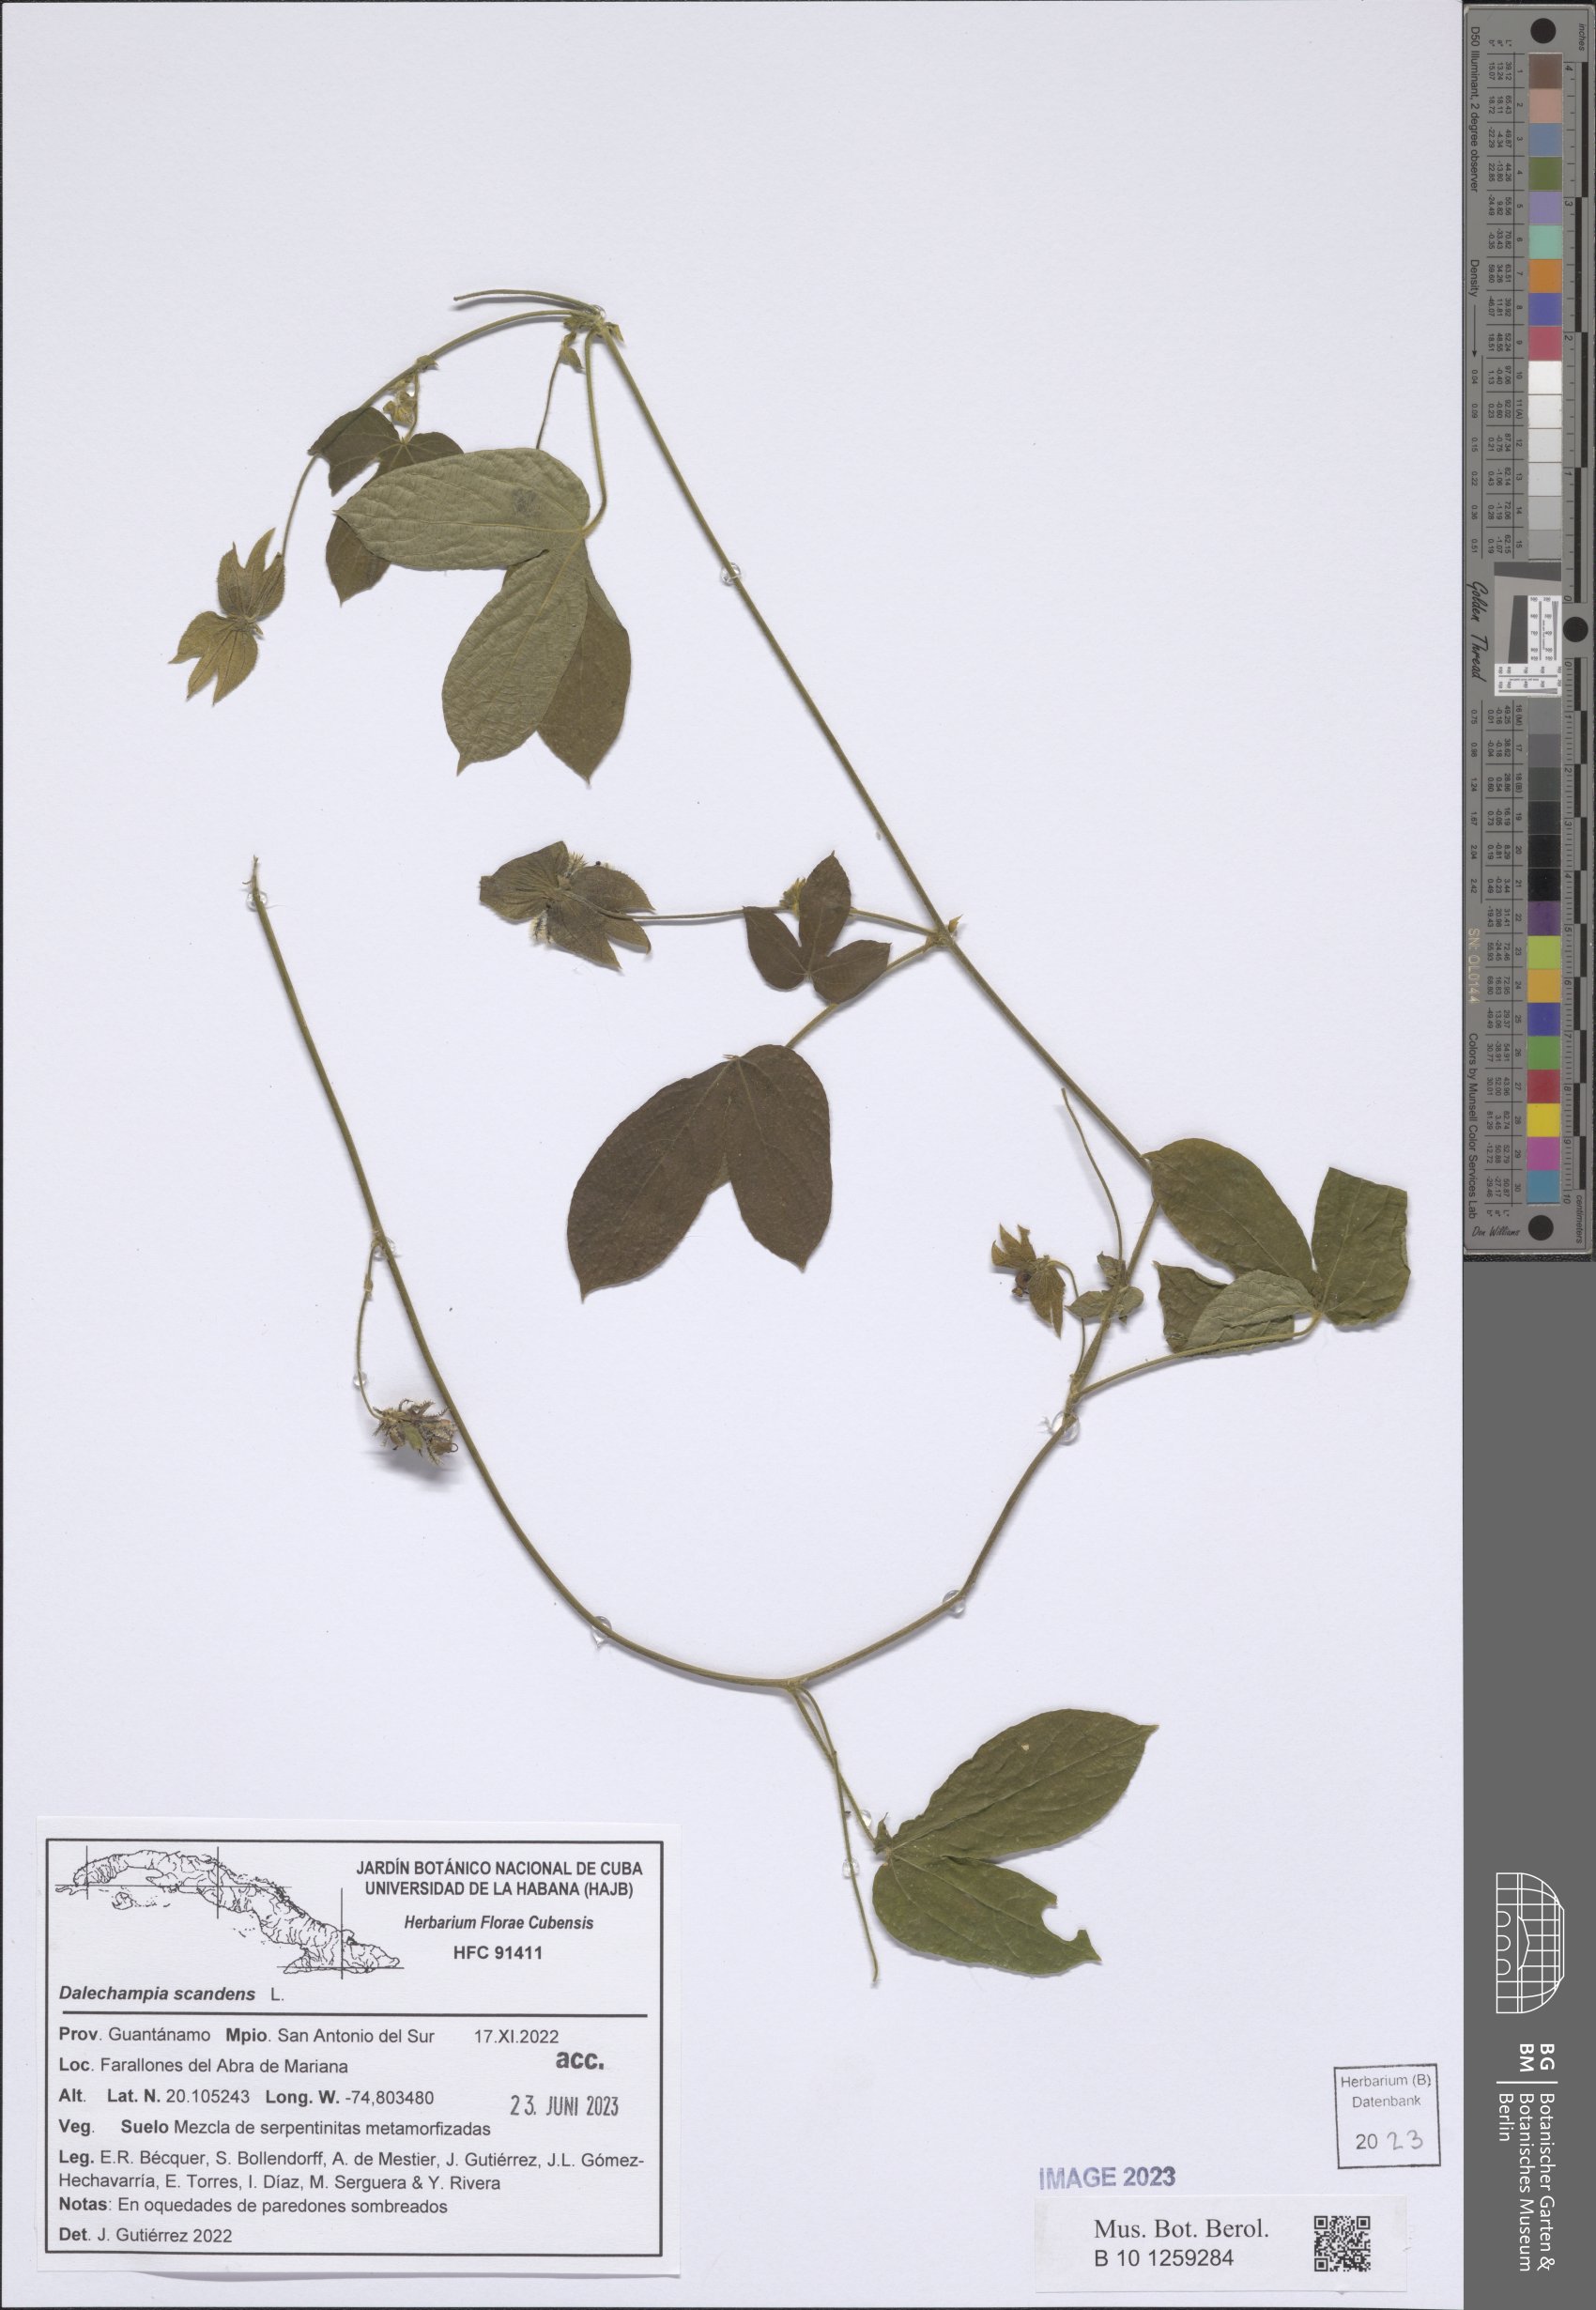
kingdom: Plantae
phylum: Tracheophyta
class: Magnoliopsida
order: Malpighiales
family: Euphorbiaceae
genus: Dalechampia
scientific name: Dalechampia scandens
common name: Spurgecreeper
